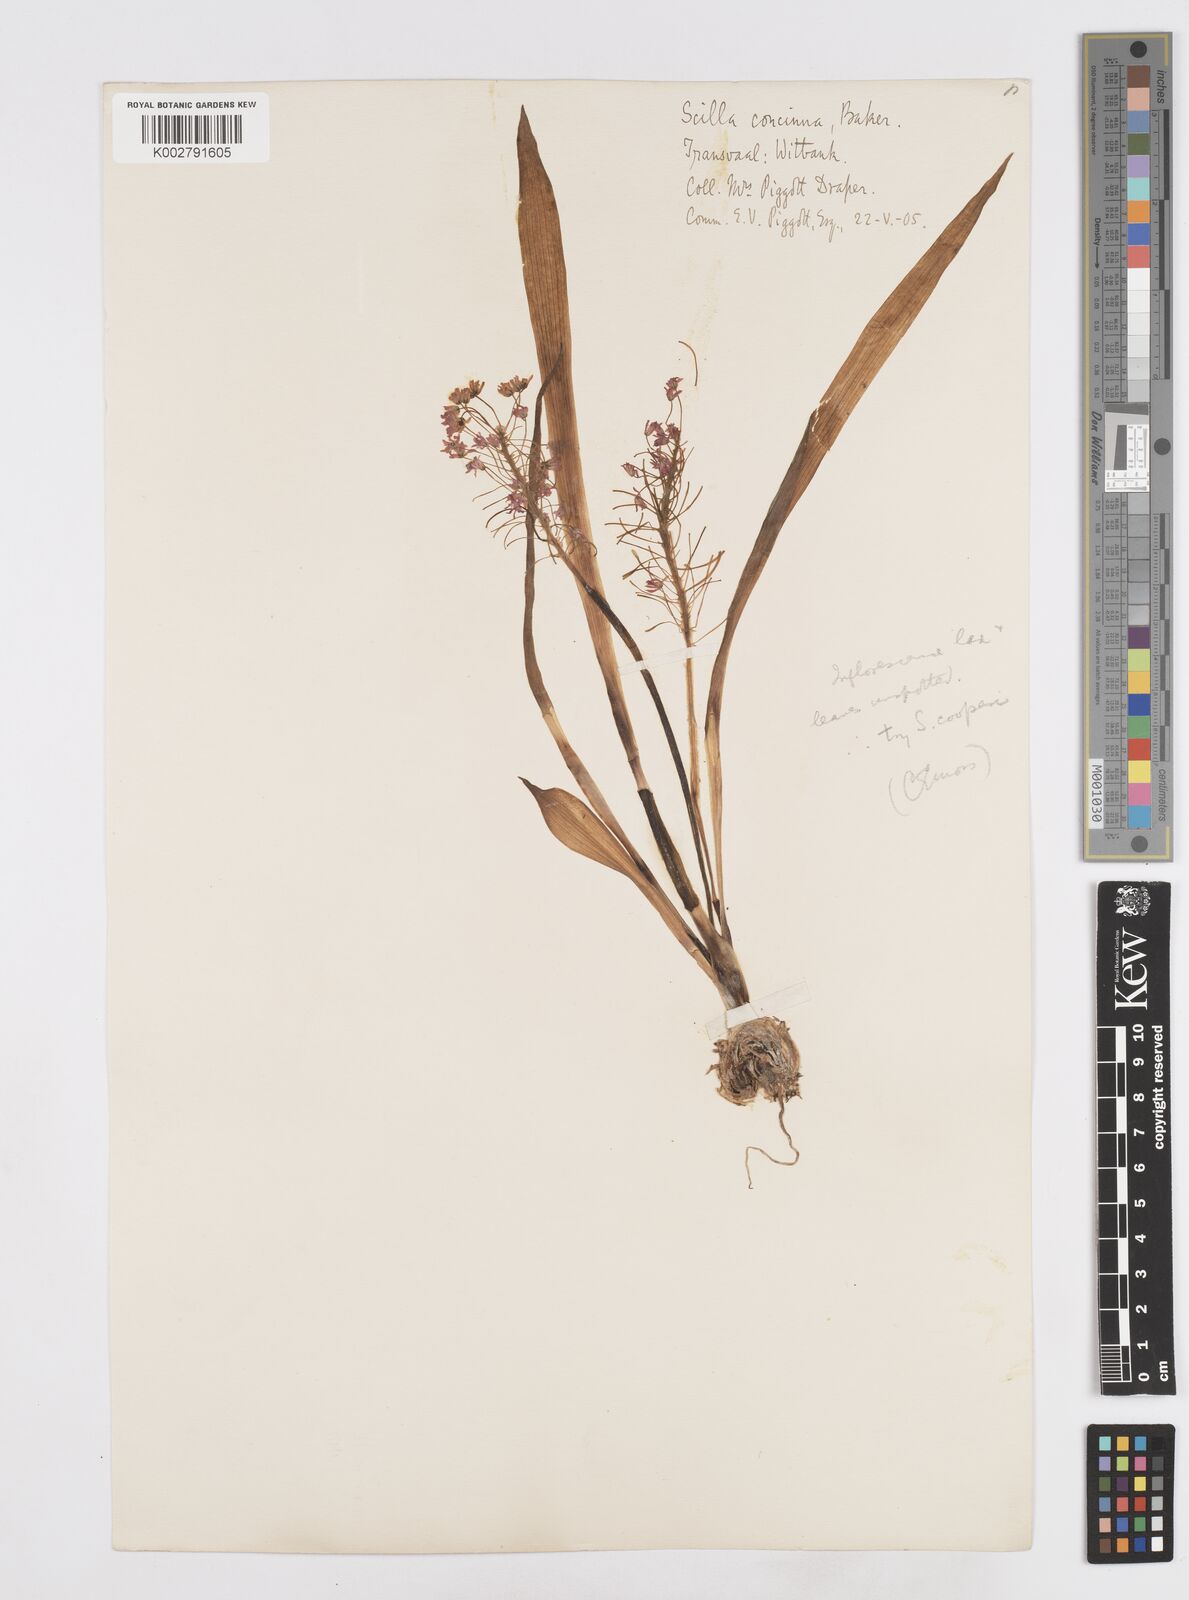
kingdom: Plantae
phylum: Tracheophyta
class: Liliopsida
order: Asparagales
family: Asparagaceae
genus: Scilla
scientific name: Scilla
